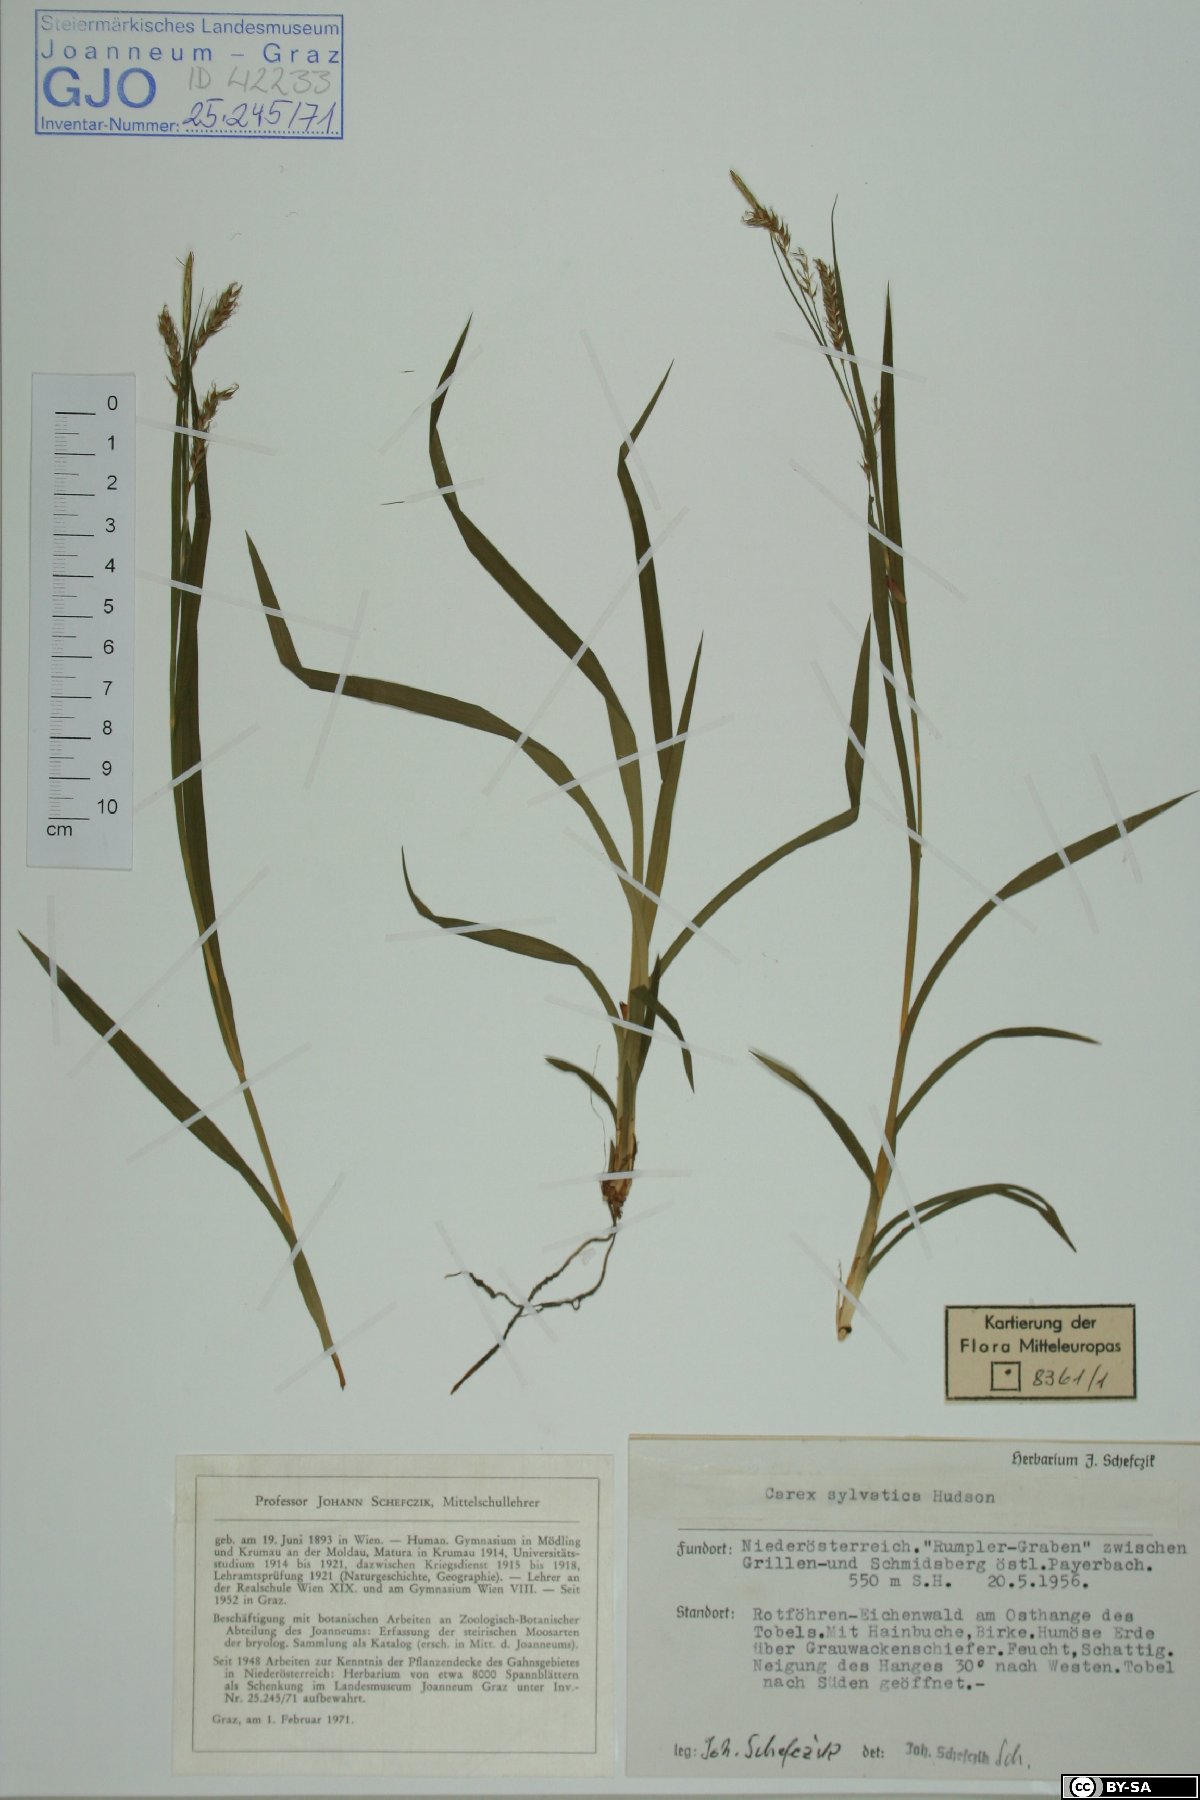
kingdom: Plantae
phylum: Tracheophyta
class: Liliopsida
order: Poales
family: Cyperaceae
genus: Carex
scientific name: Carex sylvatica
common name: Wood-sedge
